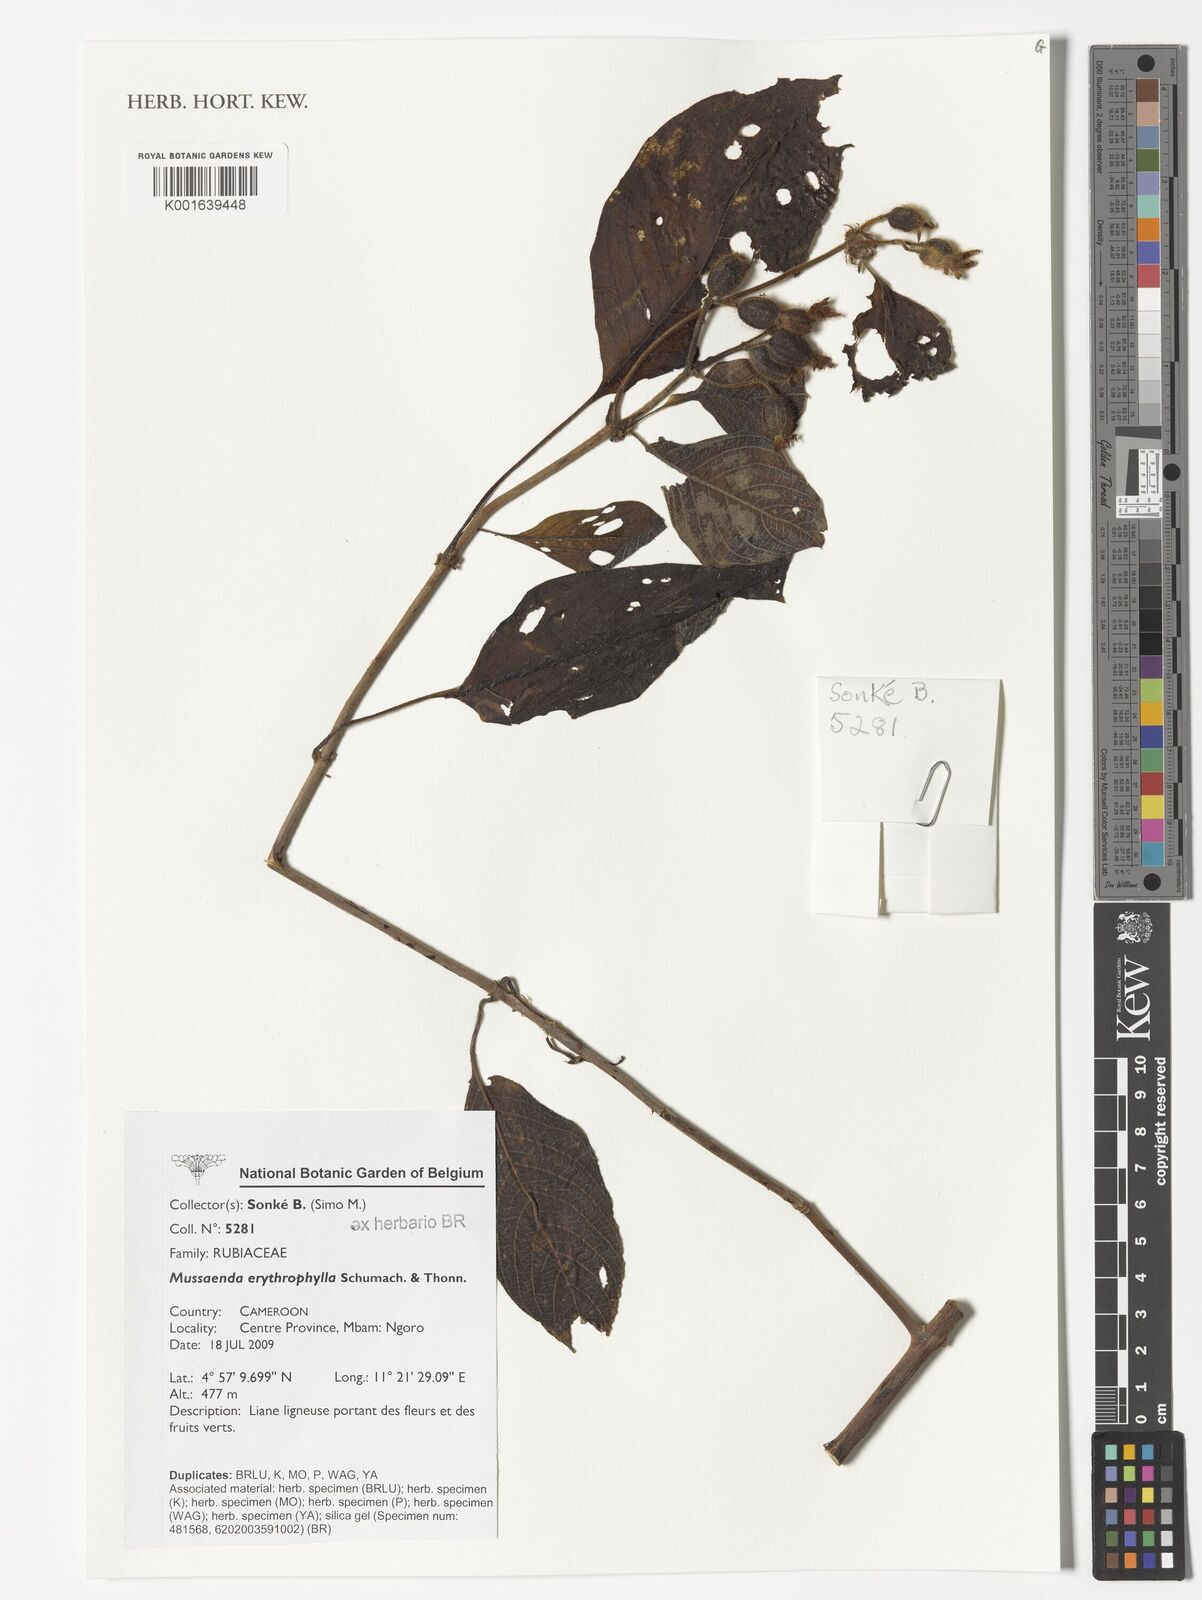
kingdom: Plantae
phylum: Tracheophyta
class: Magnoliopsida
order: Gentianales
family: Rubiaceae
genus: Mussaenda
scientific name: Mussaenda erythrophylla
